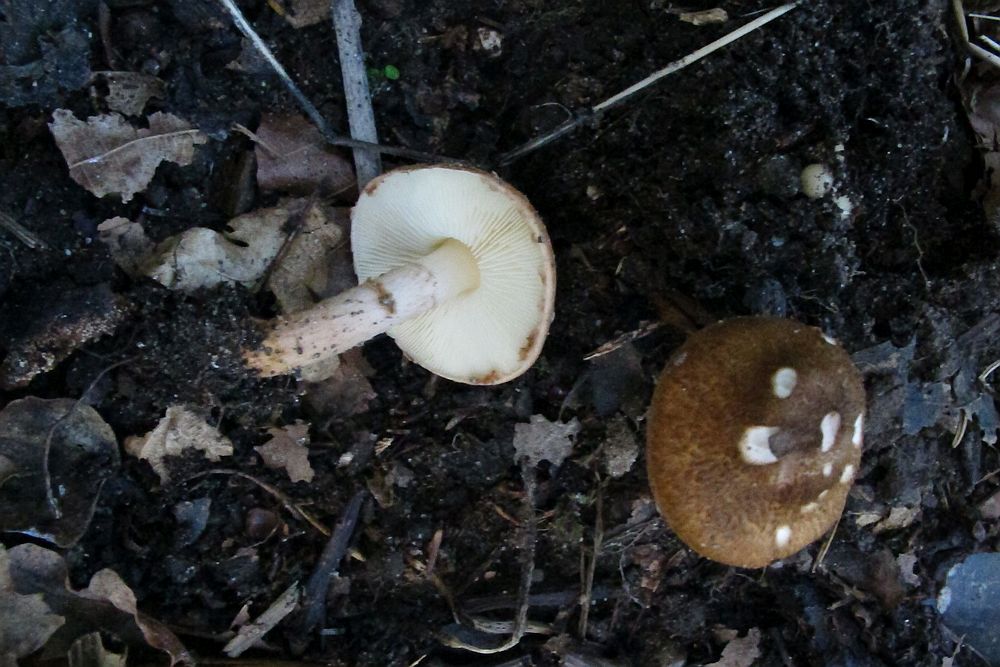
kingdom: Fungi
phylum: Basidiomycota
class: Agaricomycetes
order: Agaricales
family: Agaricaceae
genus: Leucocoprinus
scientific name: Leucocoprinus straminellus
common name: rustbrun parasolhat
